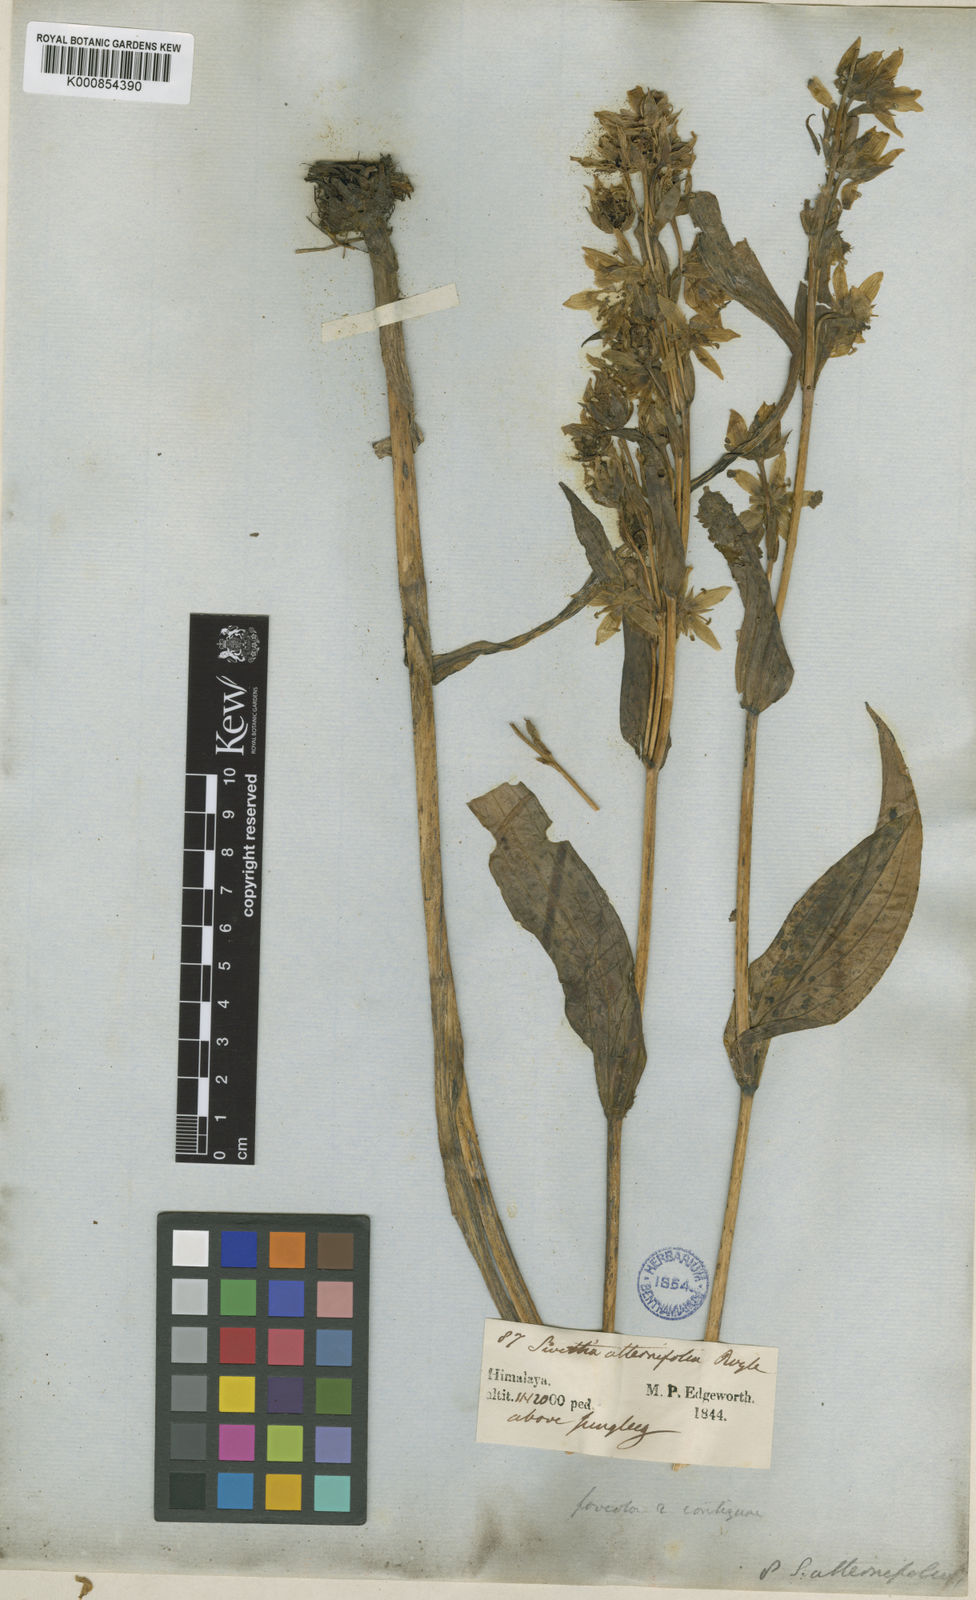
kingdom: Plantae
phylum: Tracheophyta
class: Magnoliopsida
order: Gentianales
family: Gentianaceae
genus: Swertia
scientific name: Swertia alternifolia
